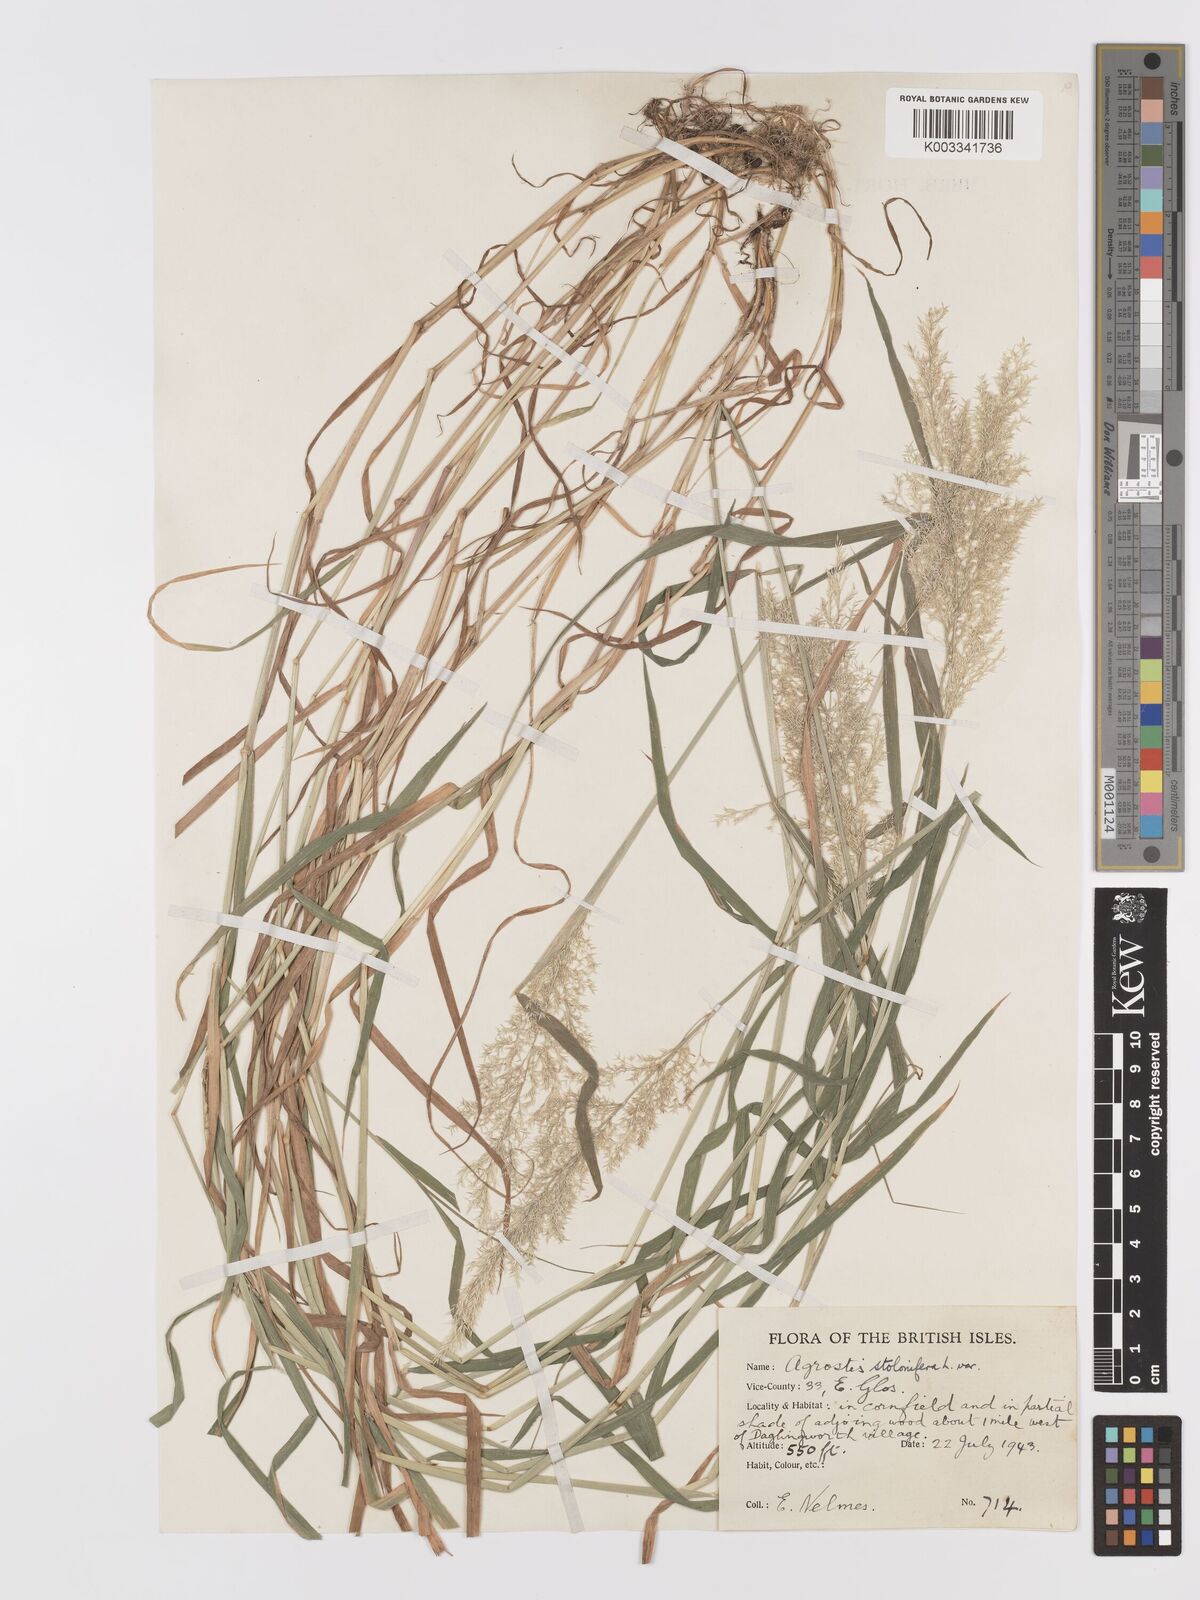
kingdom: Plantae
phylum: Tracheophyta
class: Liliopsida
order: Poales
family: Poaceae
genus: Agrostis
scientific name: Agrostis stolonifera
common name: Creeping bentgrass
